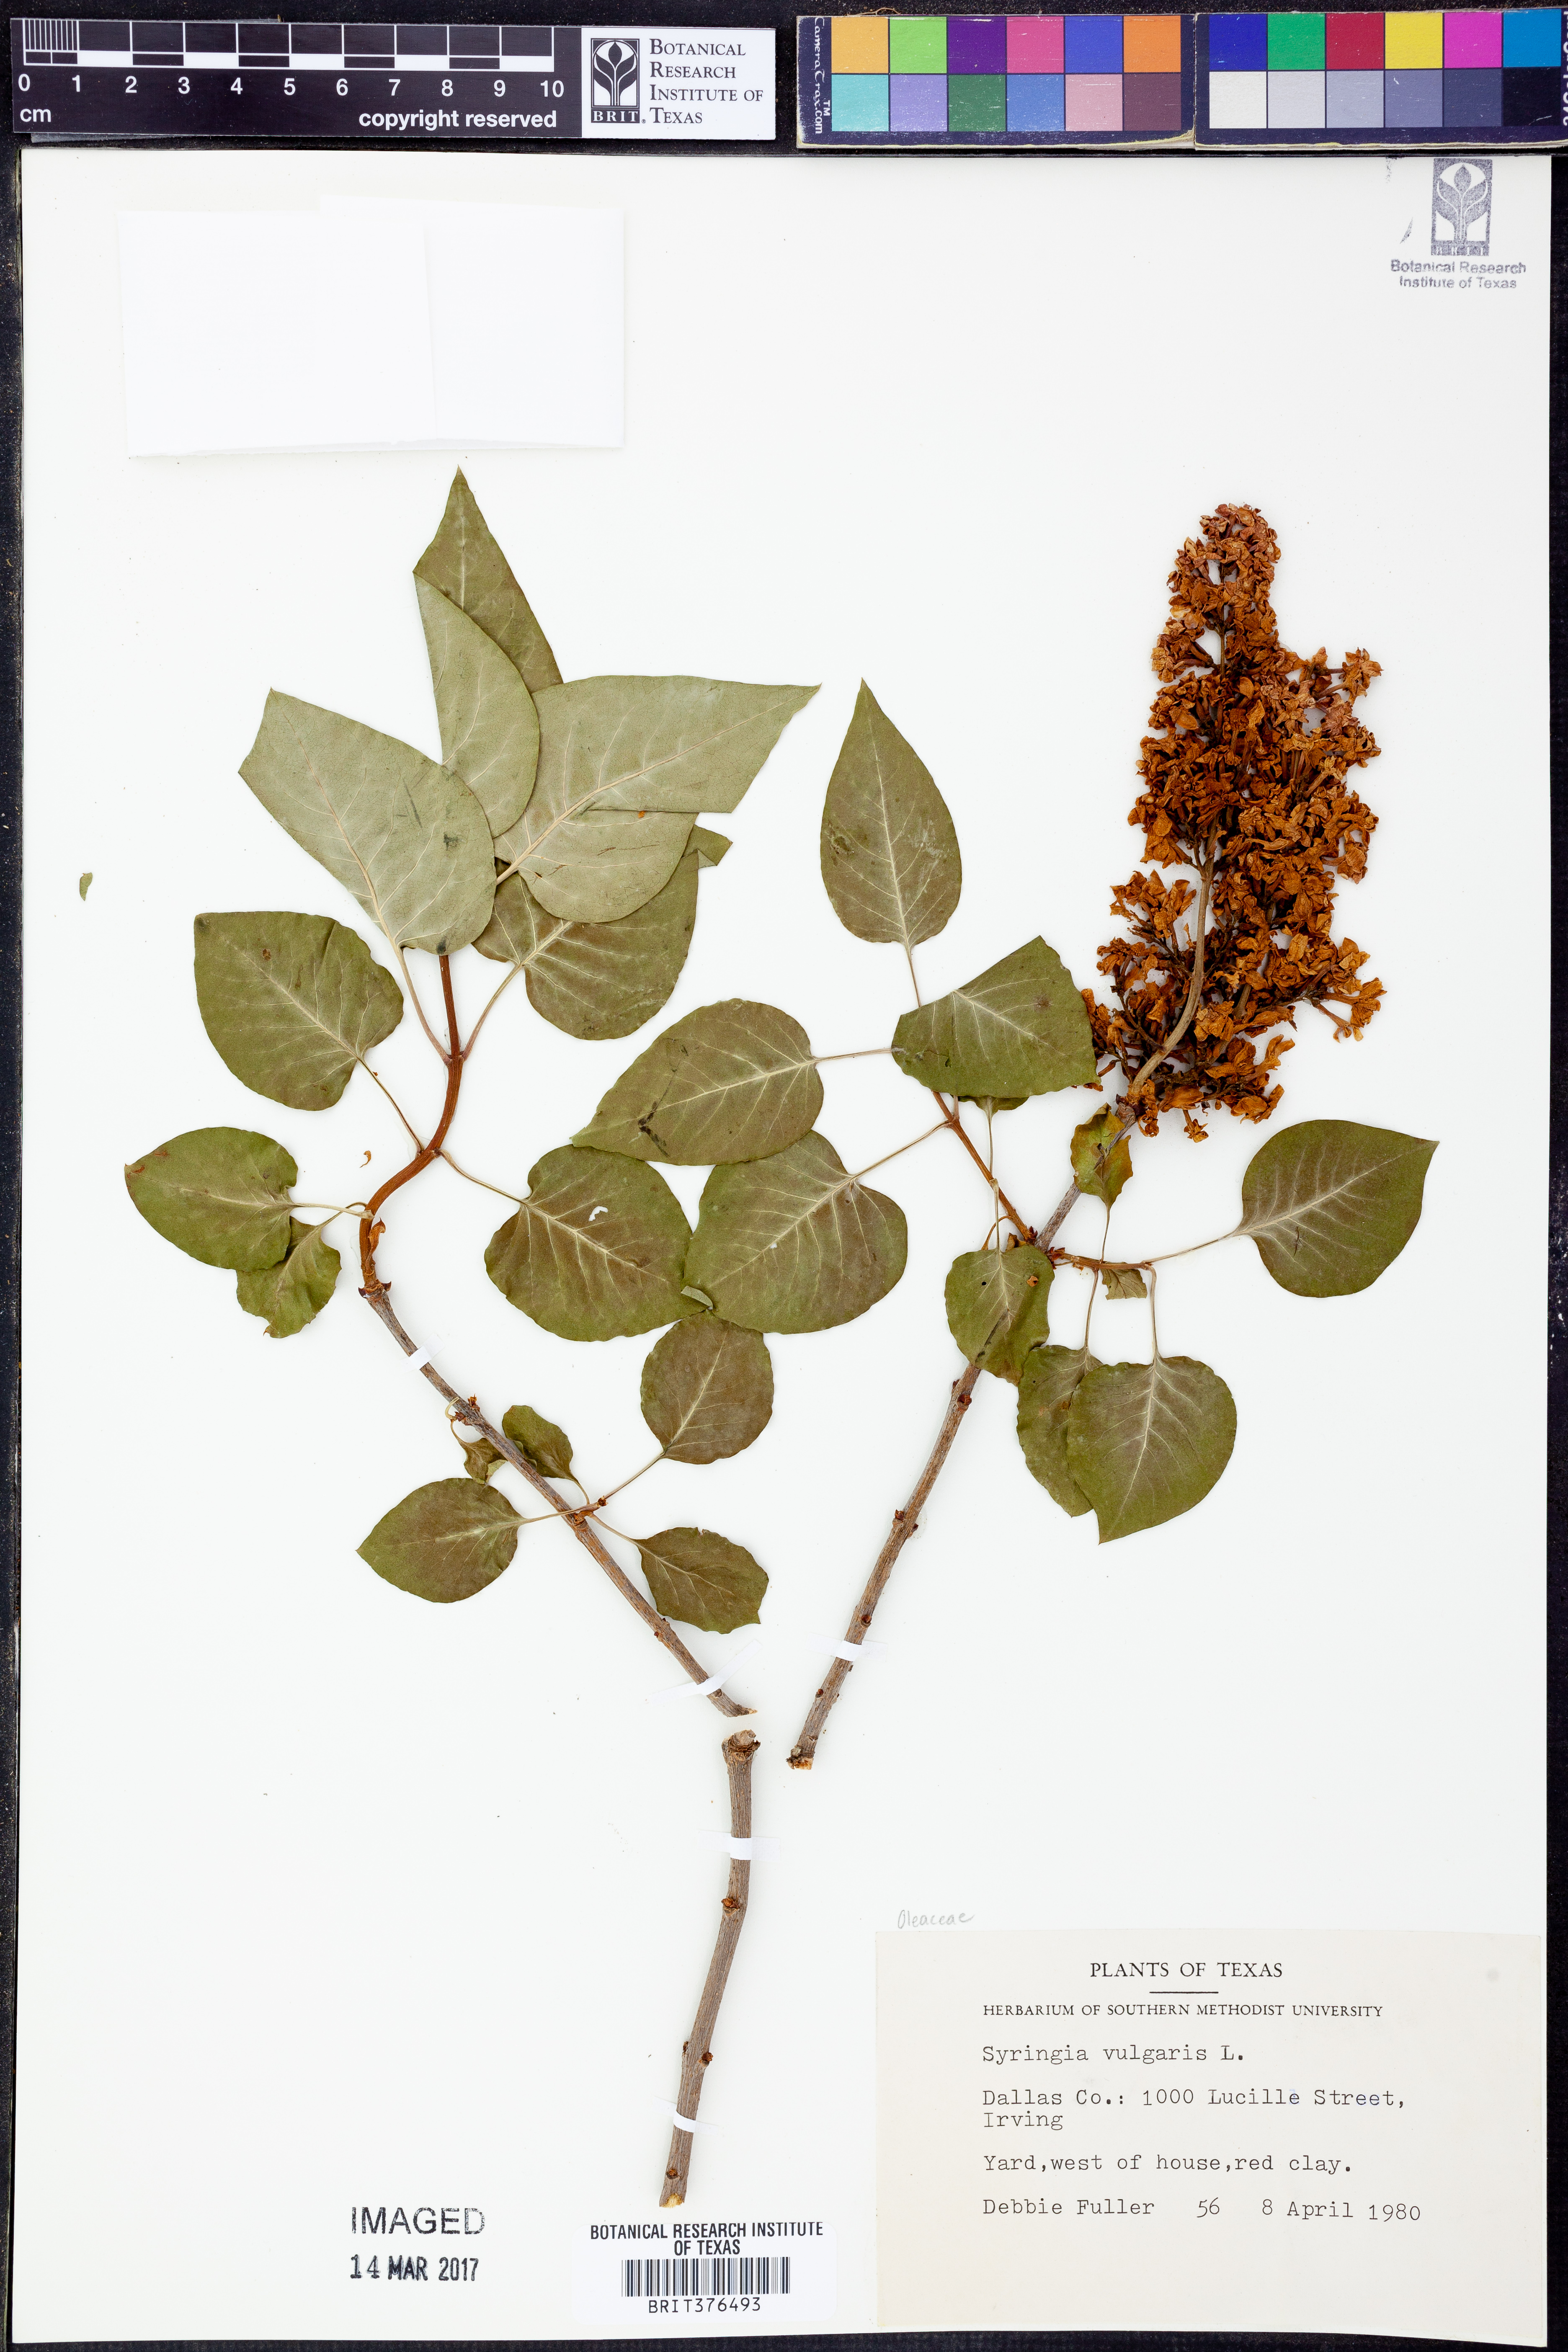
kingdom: Plantae
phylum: Tracheophyta
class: Magnoliopsida
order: Lamiales
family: Oleaceae
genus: Syringa
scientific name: Syringa vulgaris
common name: Common lilac
